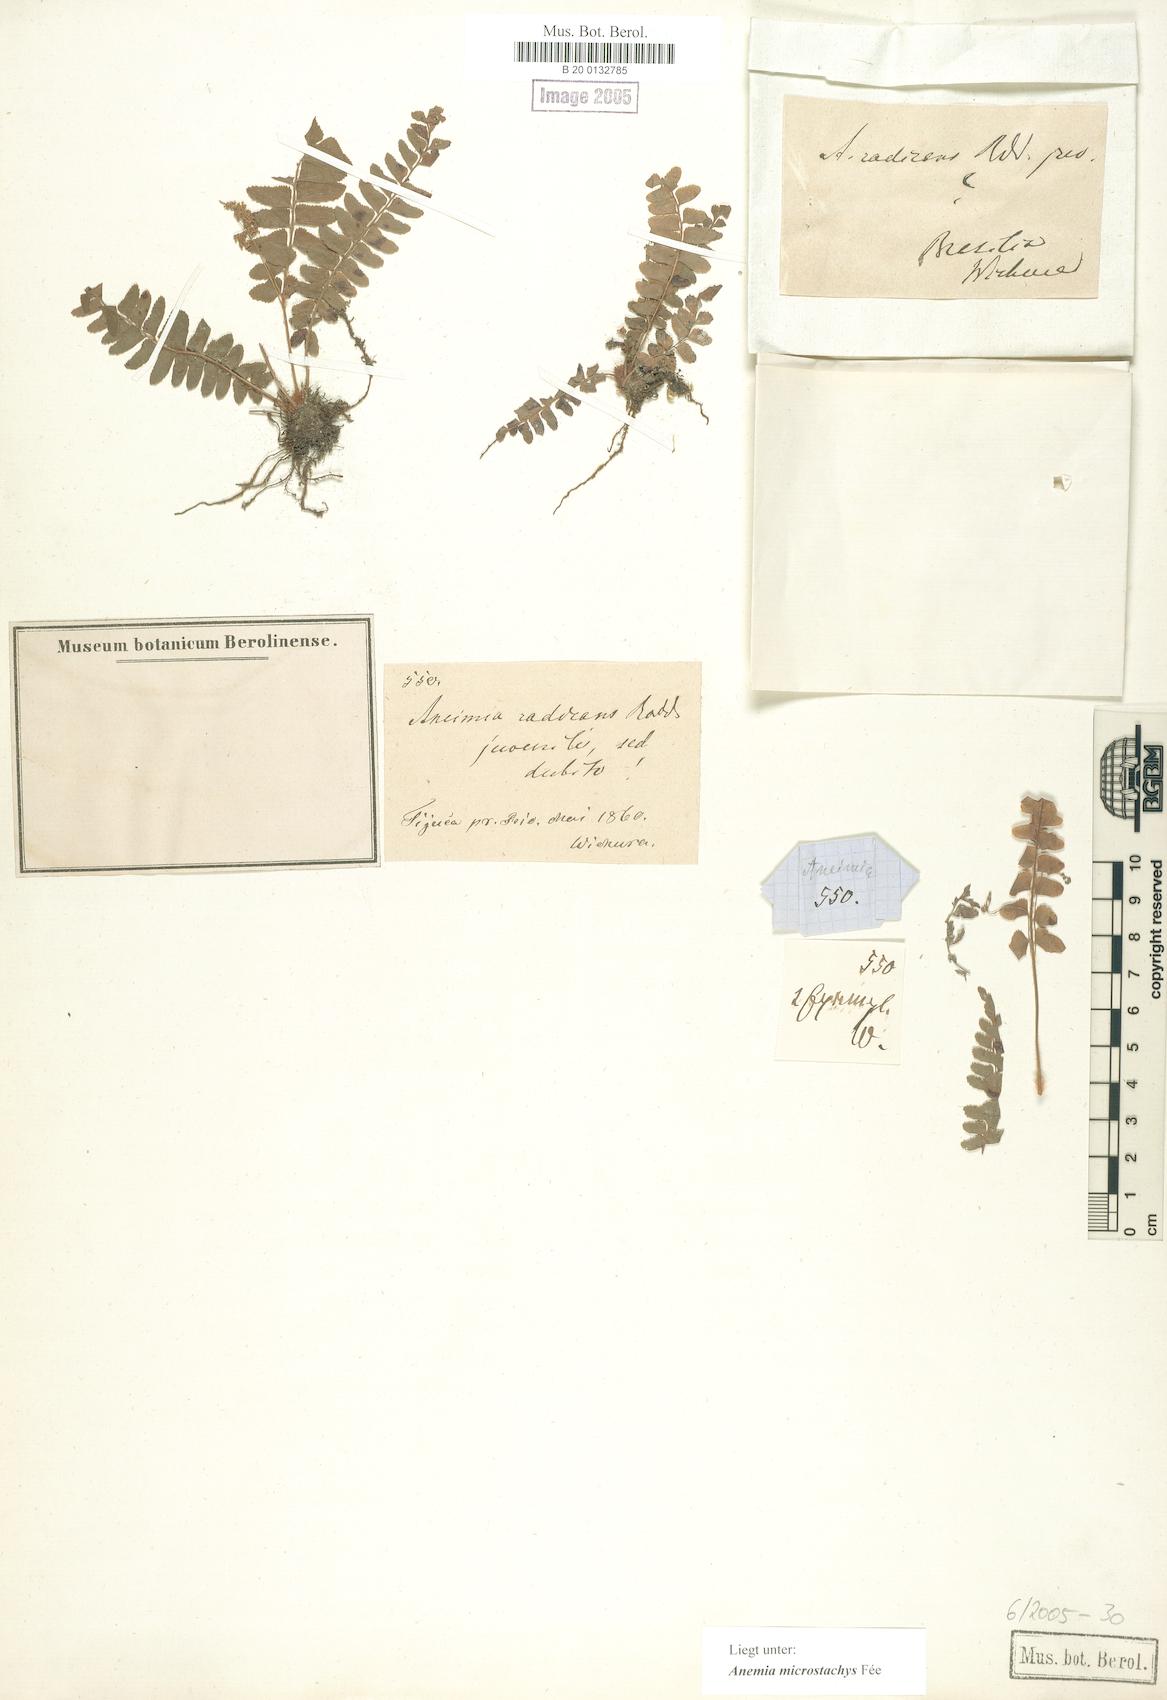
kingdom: Plantae
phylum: Tracheophyta
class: Polypodiopsida
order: Schizaeales
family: Anemiaceae
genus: Anemia
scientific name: Anemia hirta
